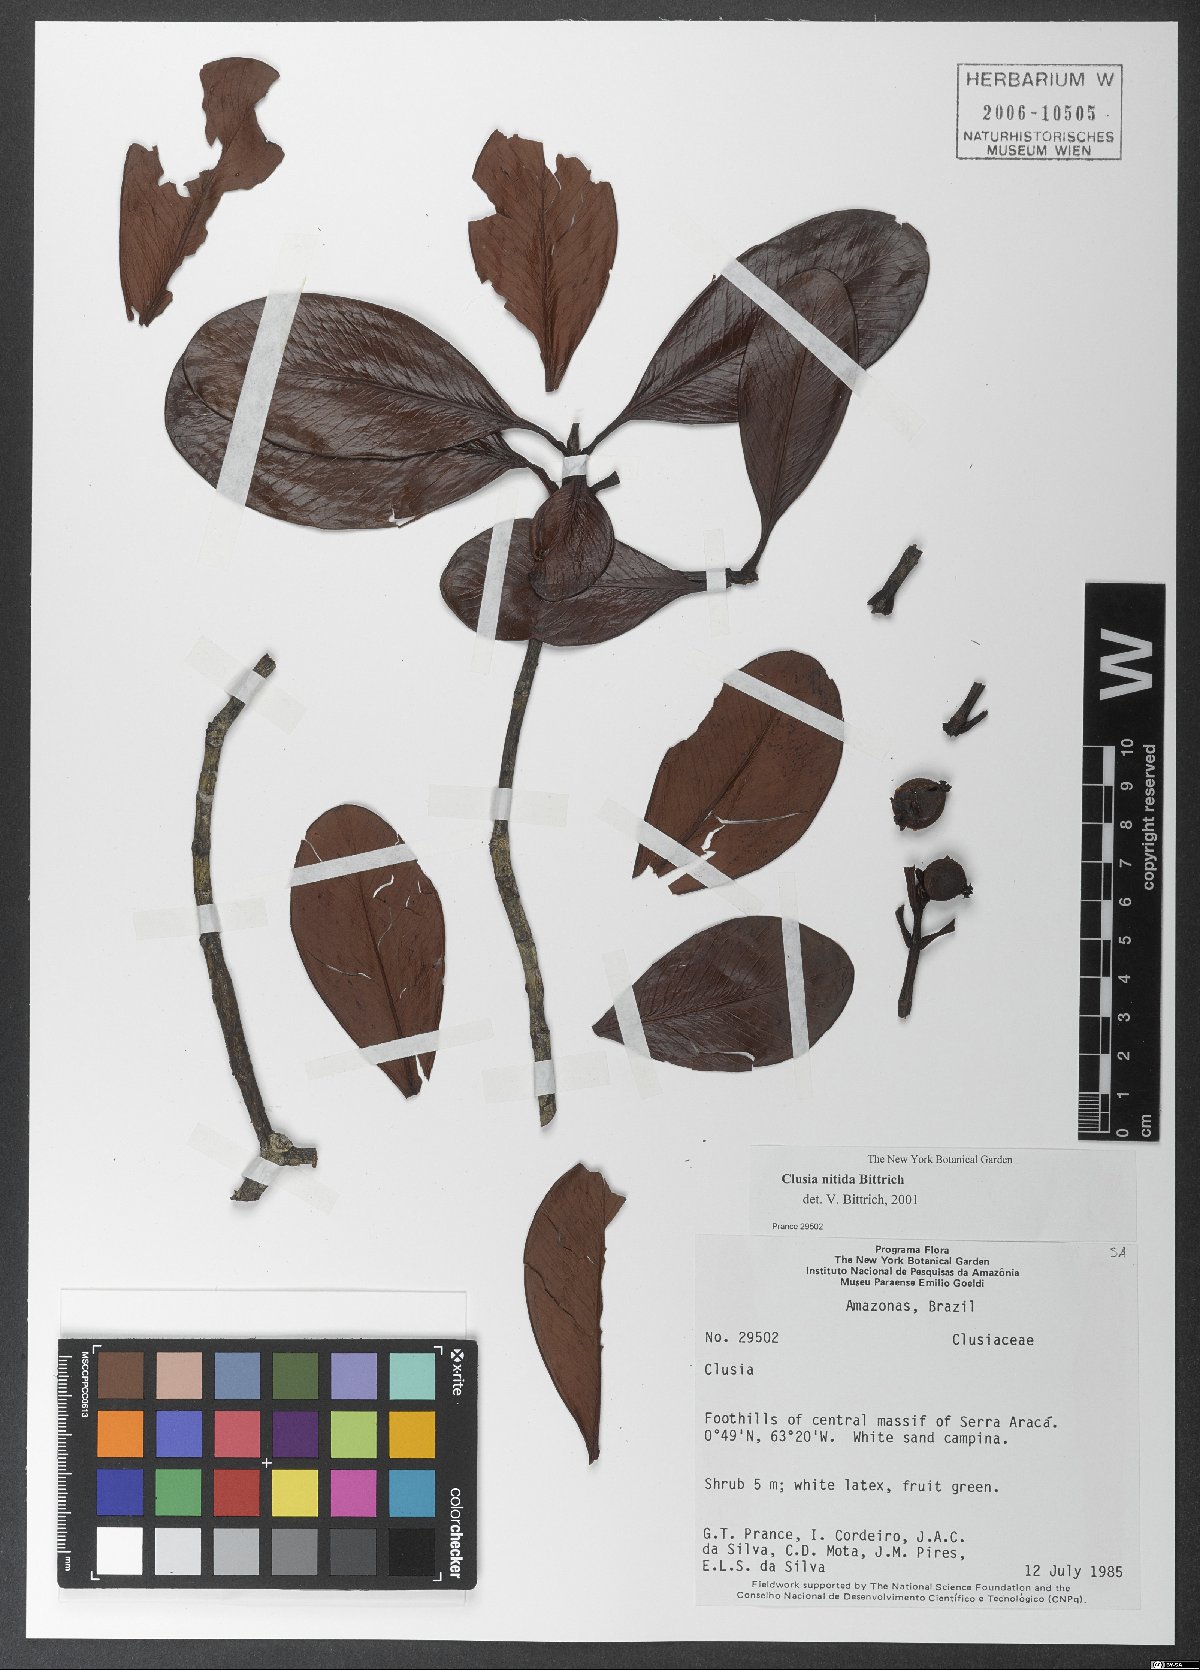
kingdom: Plantae
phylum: Tracheophyta
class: Magnoliopsida
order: Malpighiales
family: Clusiaceae
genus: Clusia
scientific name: Clusia nigrolineata
